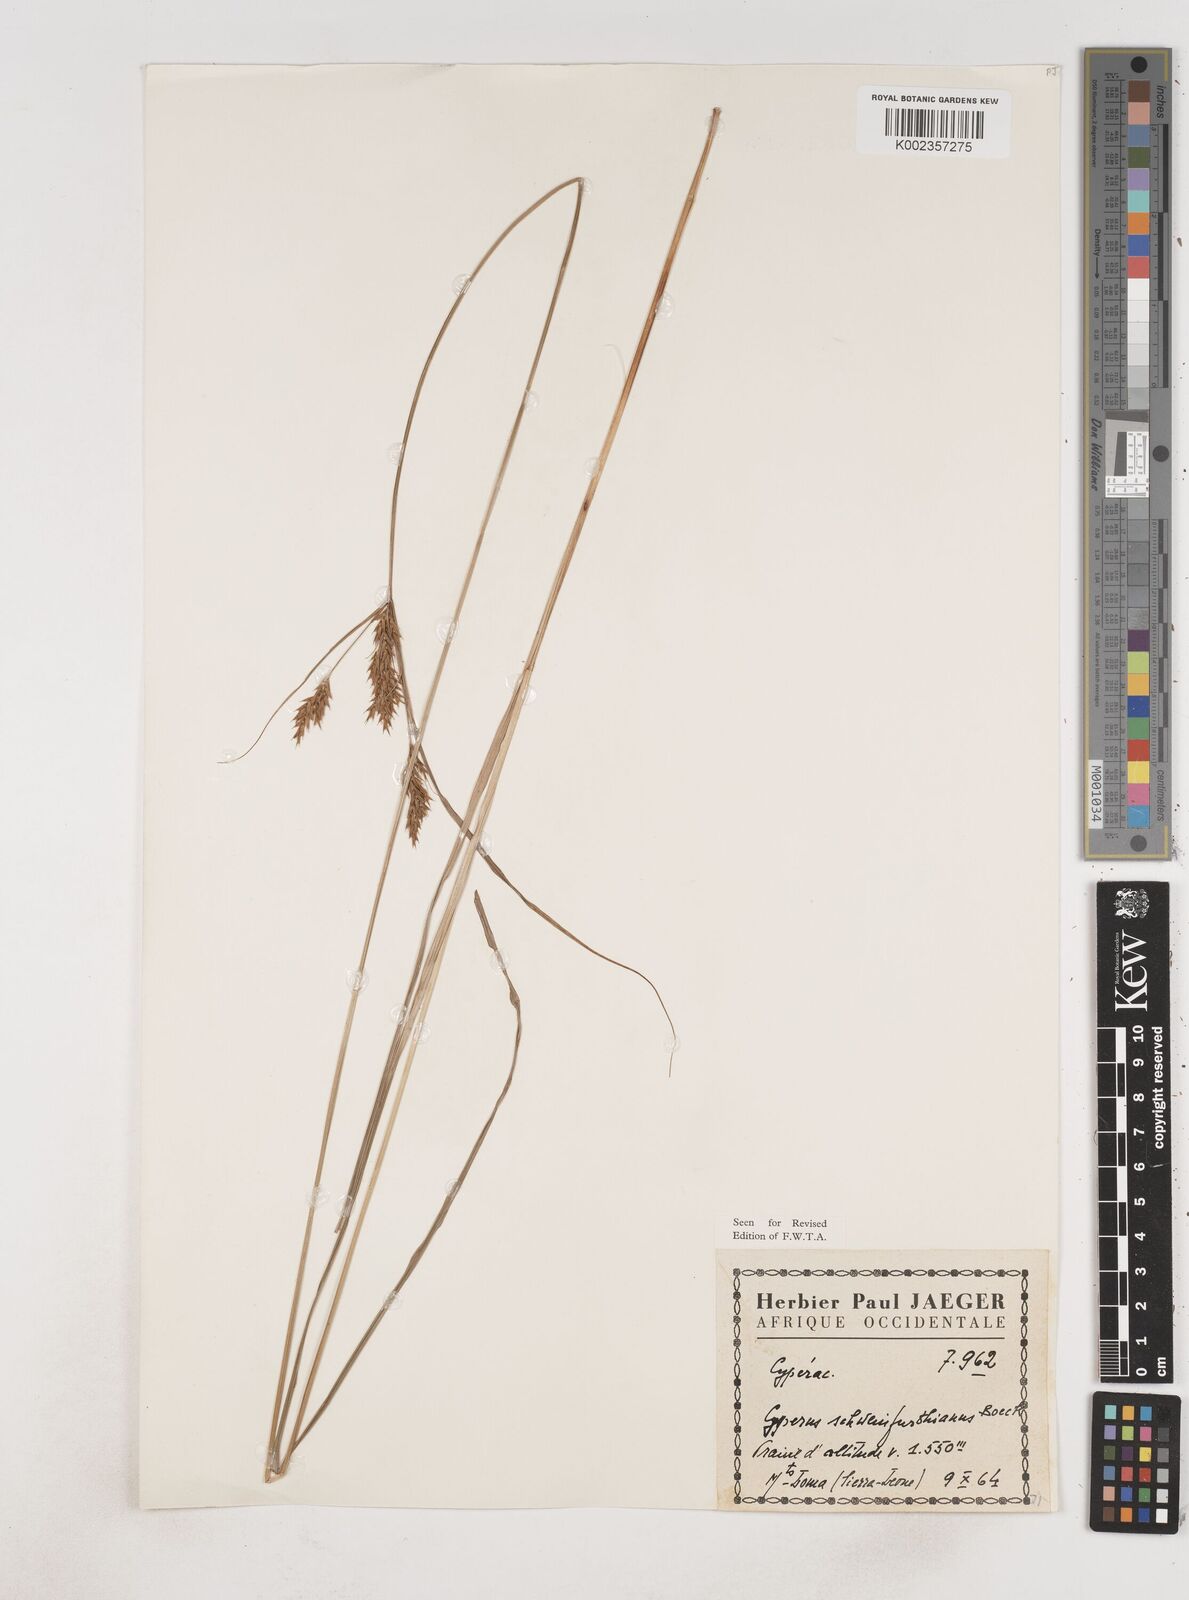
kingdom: Plantae
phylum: Tracheophyta
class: Liliopsida
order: Poales
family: Cyperaceae
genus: Cyperus
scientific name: Cyperus
